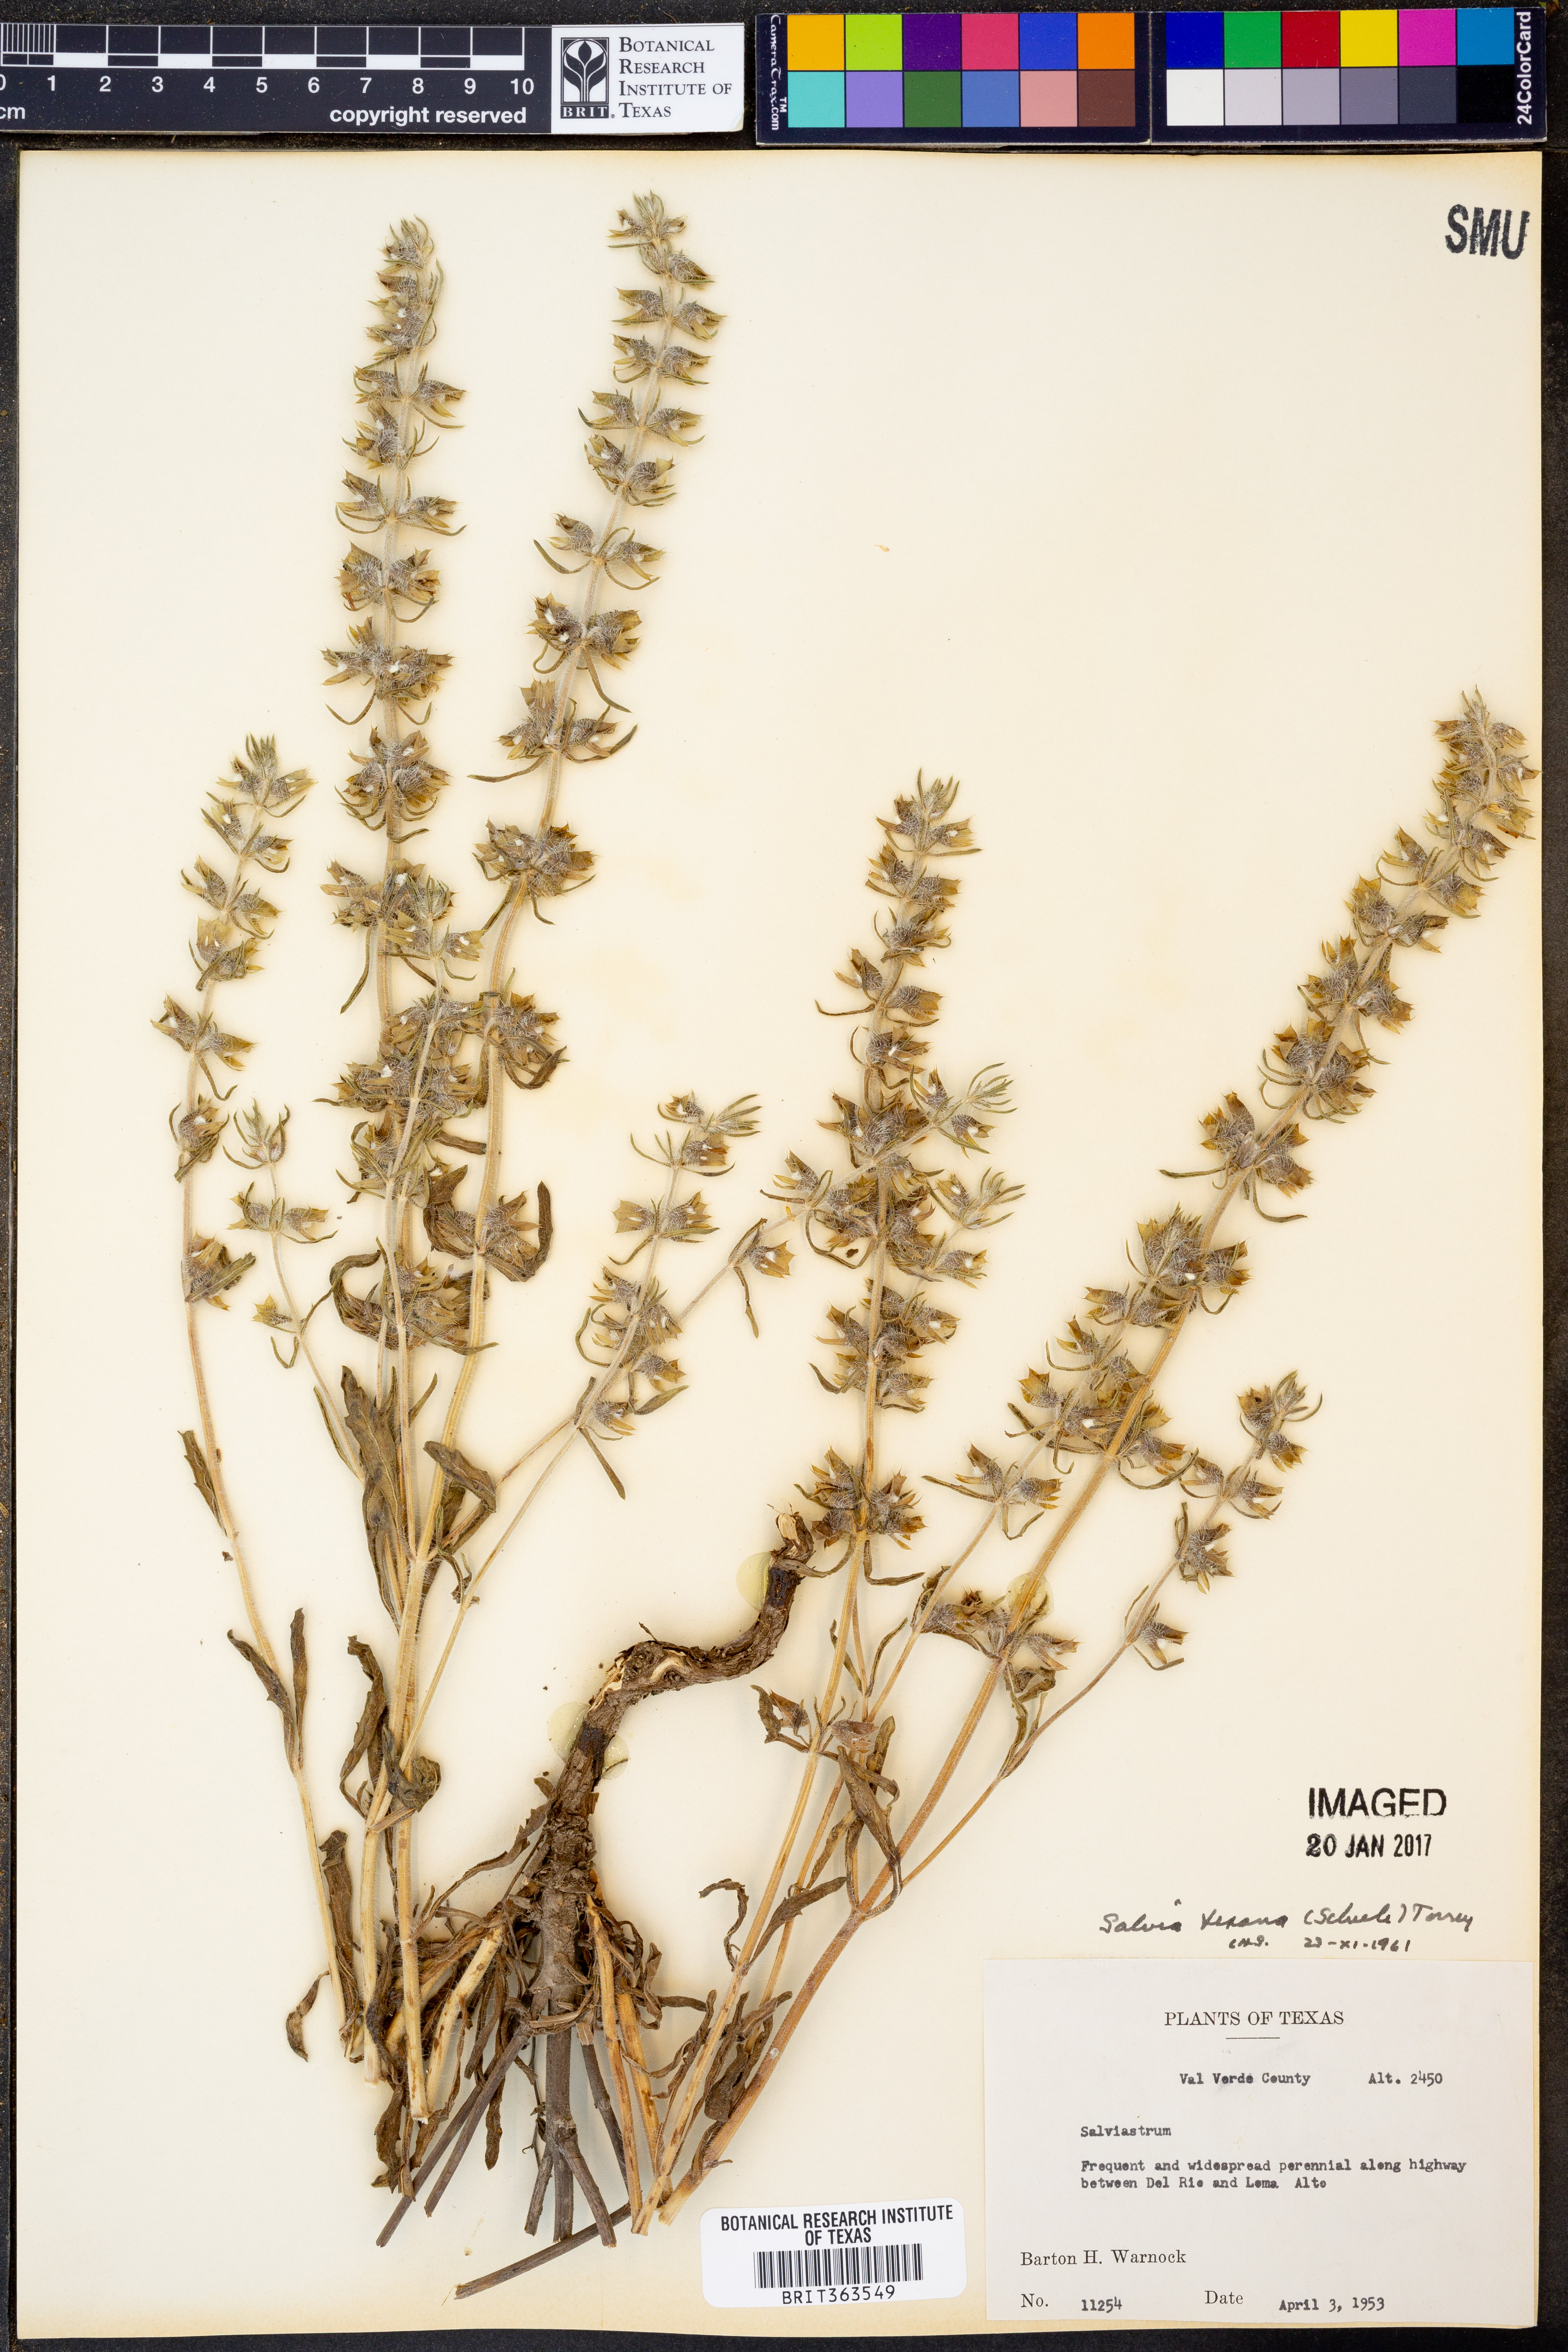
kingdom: Plantae
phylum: Tracheophyta
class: Magnoliopsida
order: Lamiales
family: Lamiaceae
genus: Salvia
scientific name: Salvia texana
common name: Texas sage
